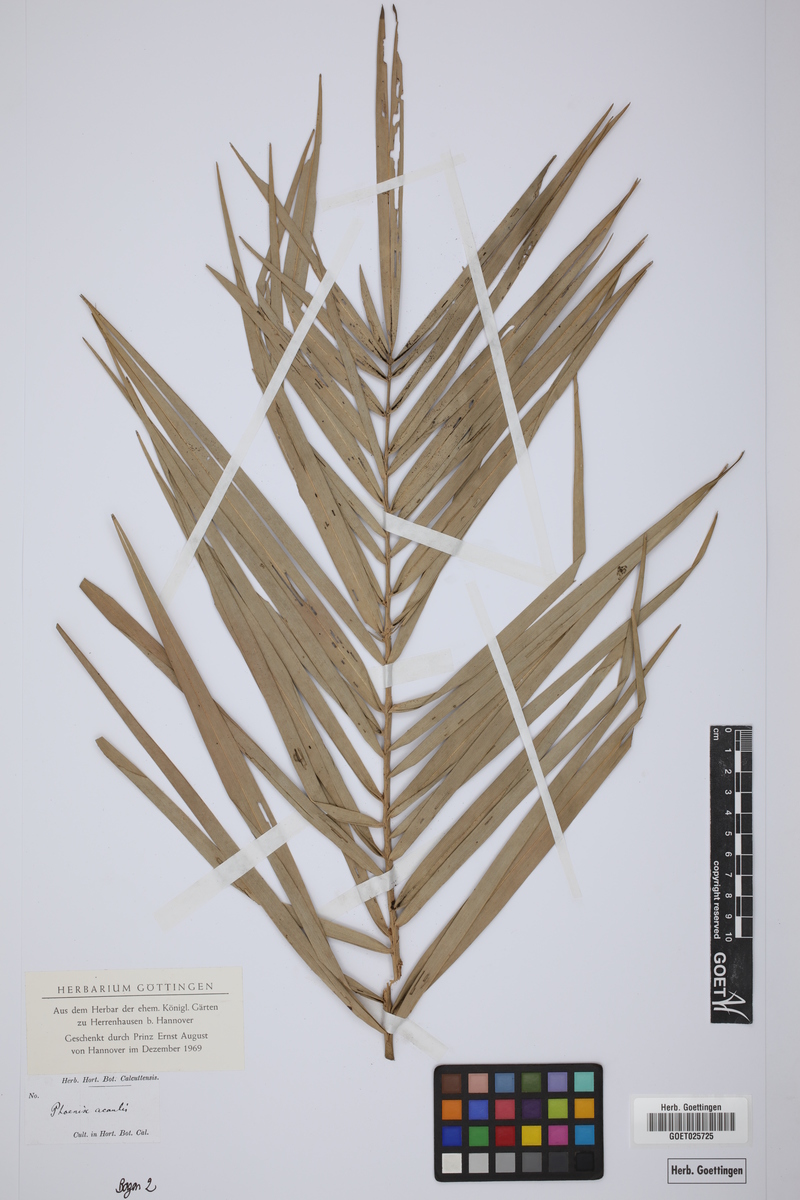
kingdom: Plantae
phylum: Tracheophyta
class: Liliopsida
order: Arecales
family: Arecaceae
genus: Phoenix
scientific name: Phoenix acaulis
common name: Stemless date palm
